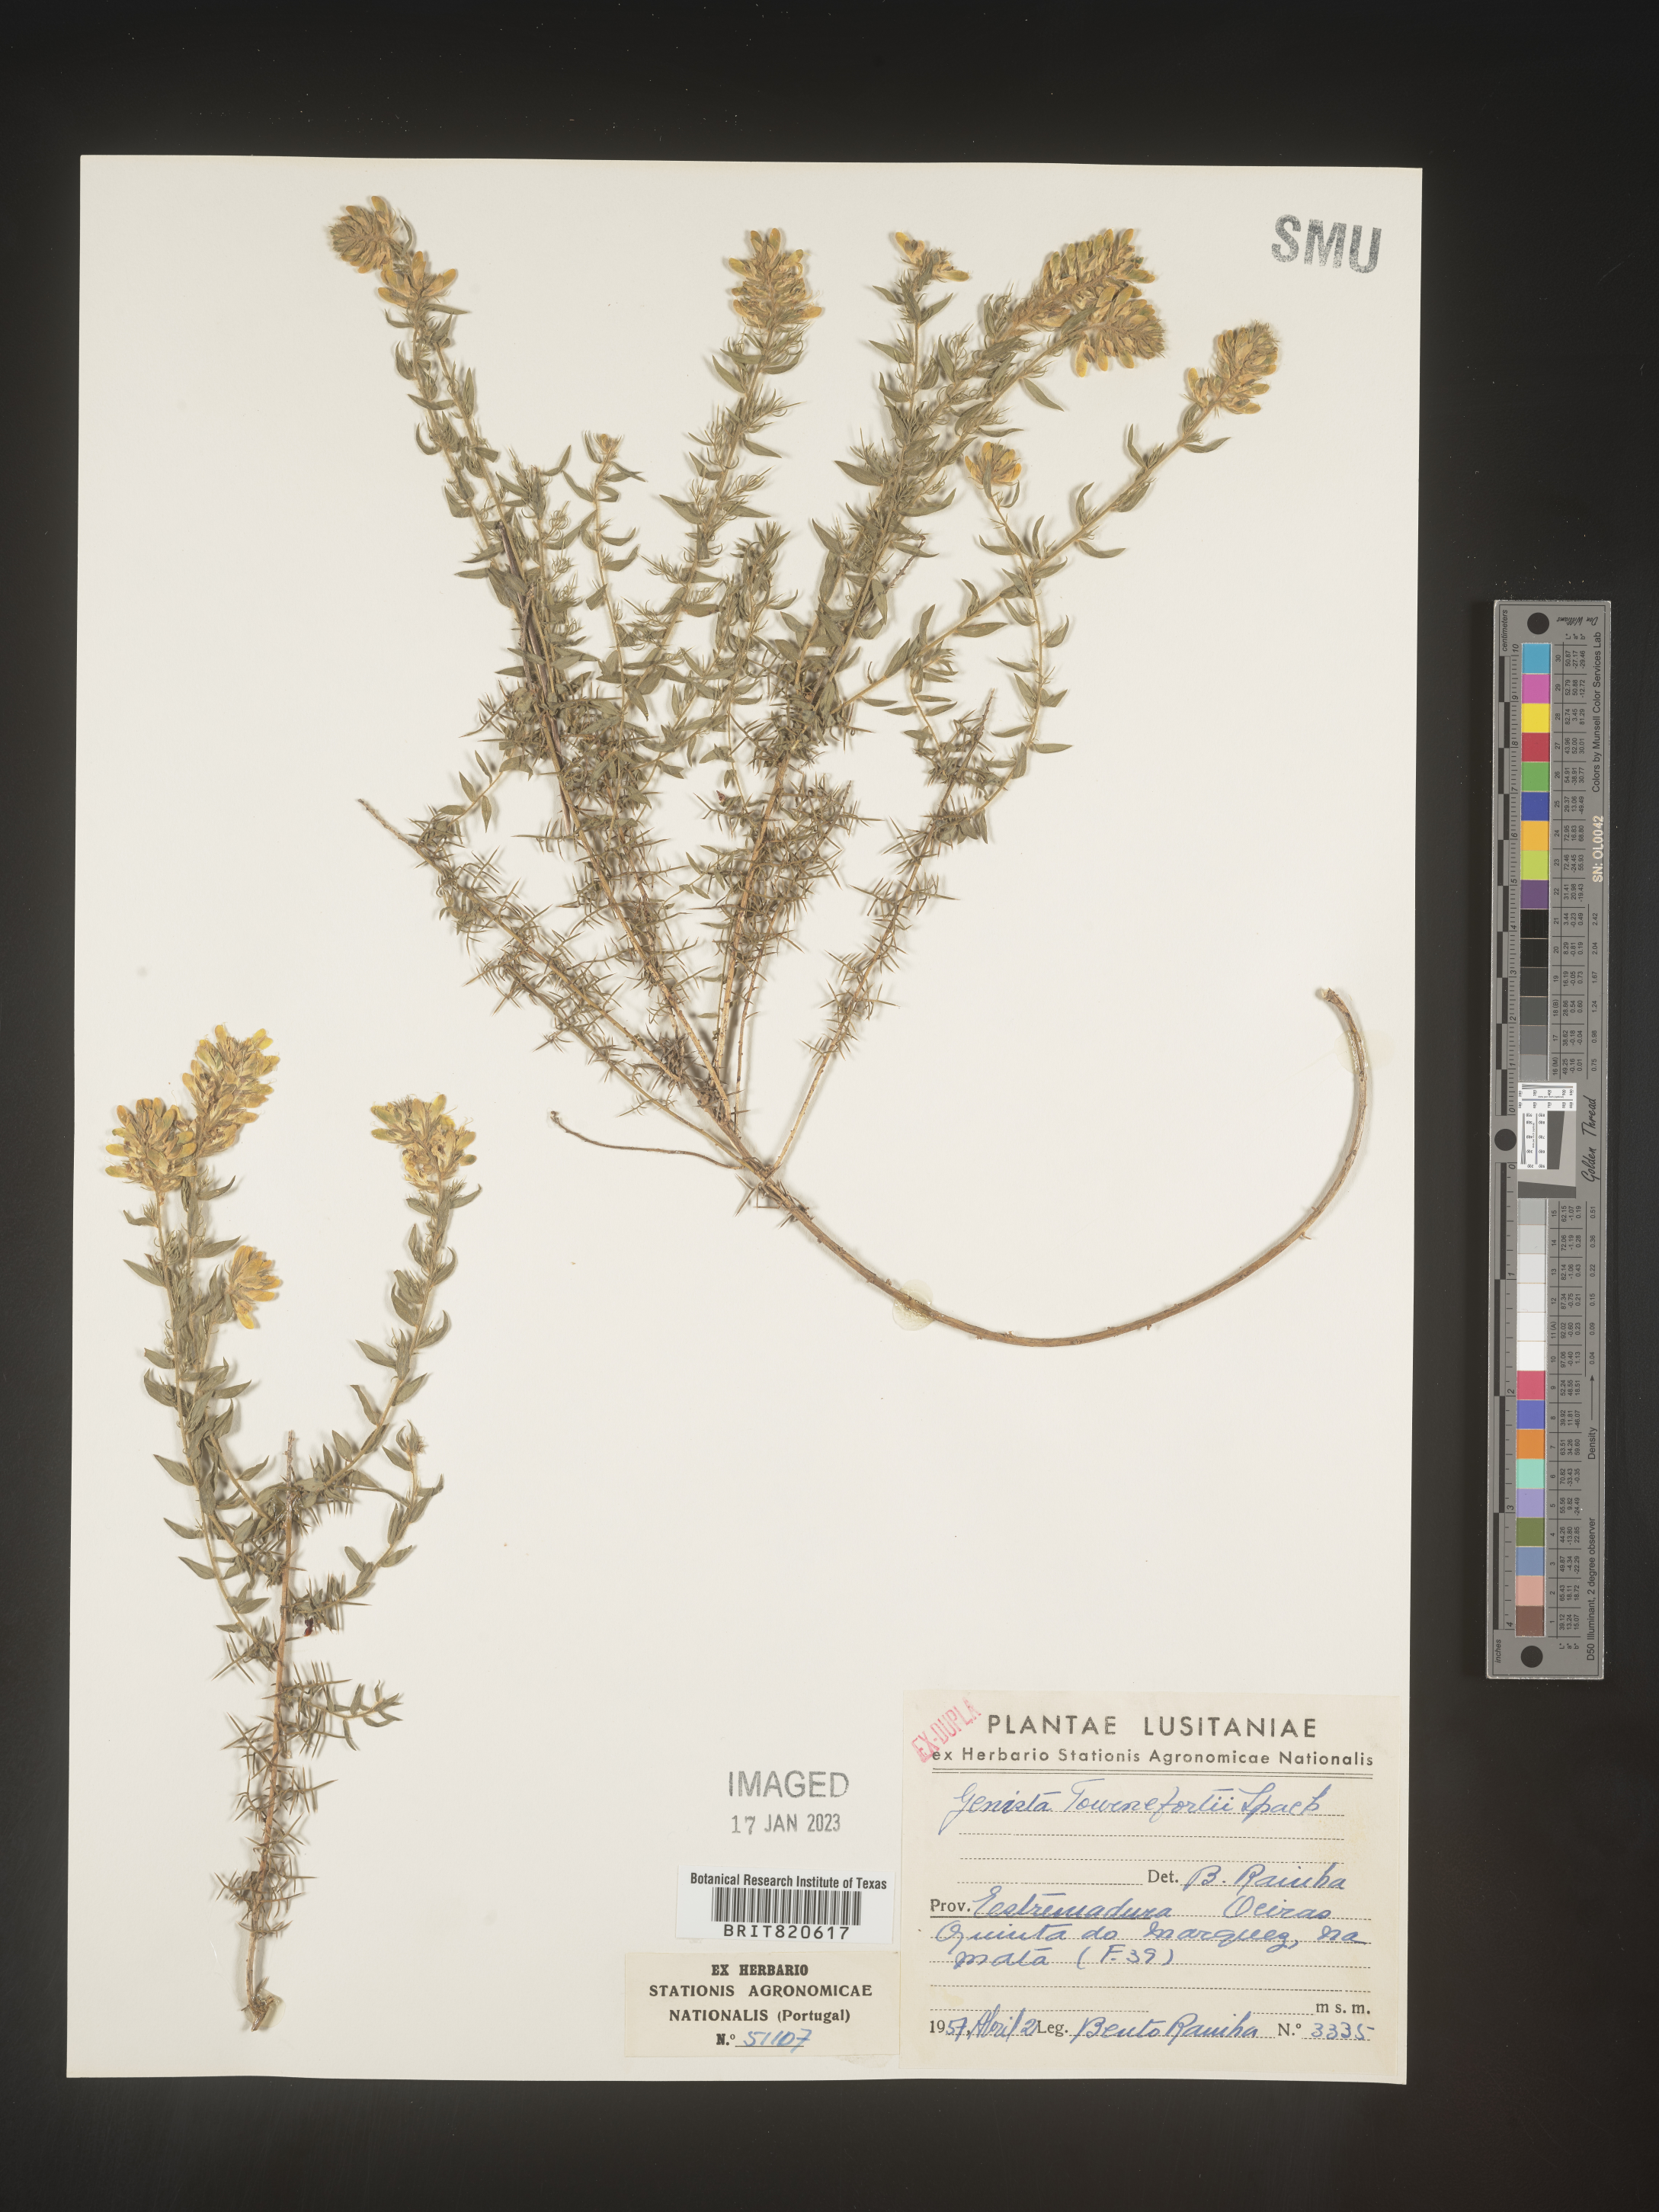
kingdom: Plantae
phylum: Tracheophyta
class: Magnoliopsida
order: Fabales
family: Fabaceae
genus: Genista
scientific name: Genista
